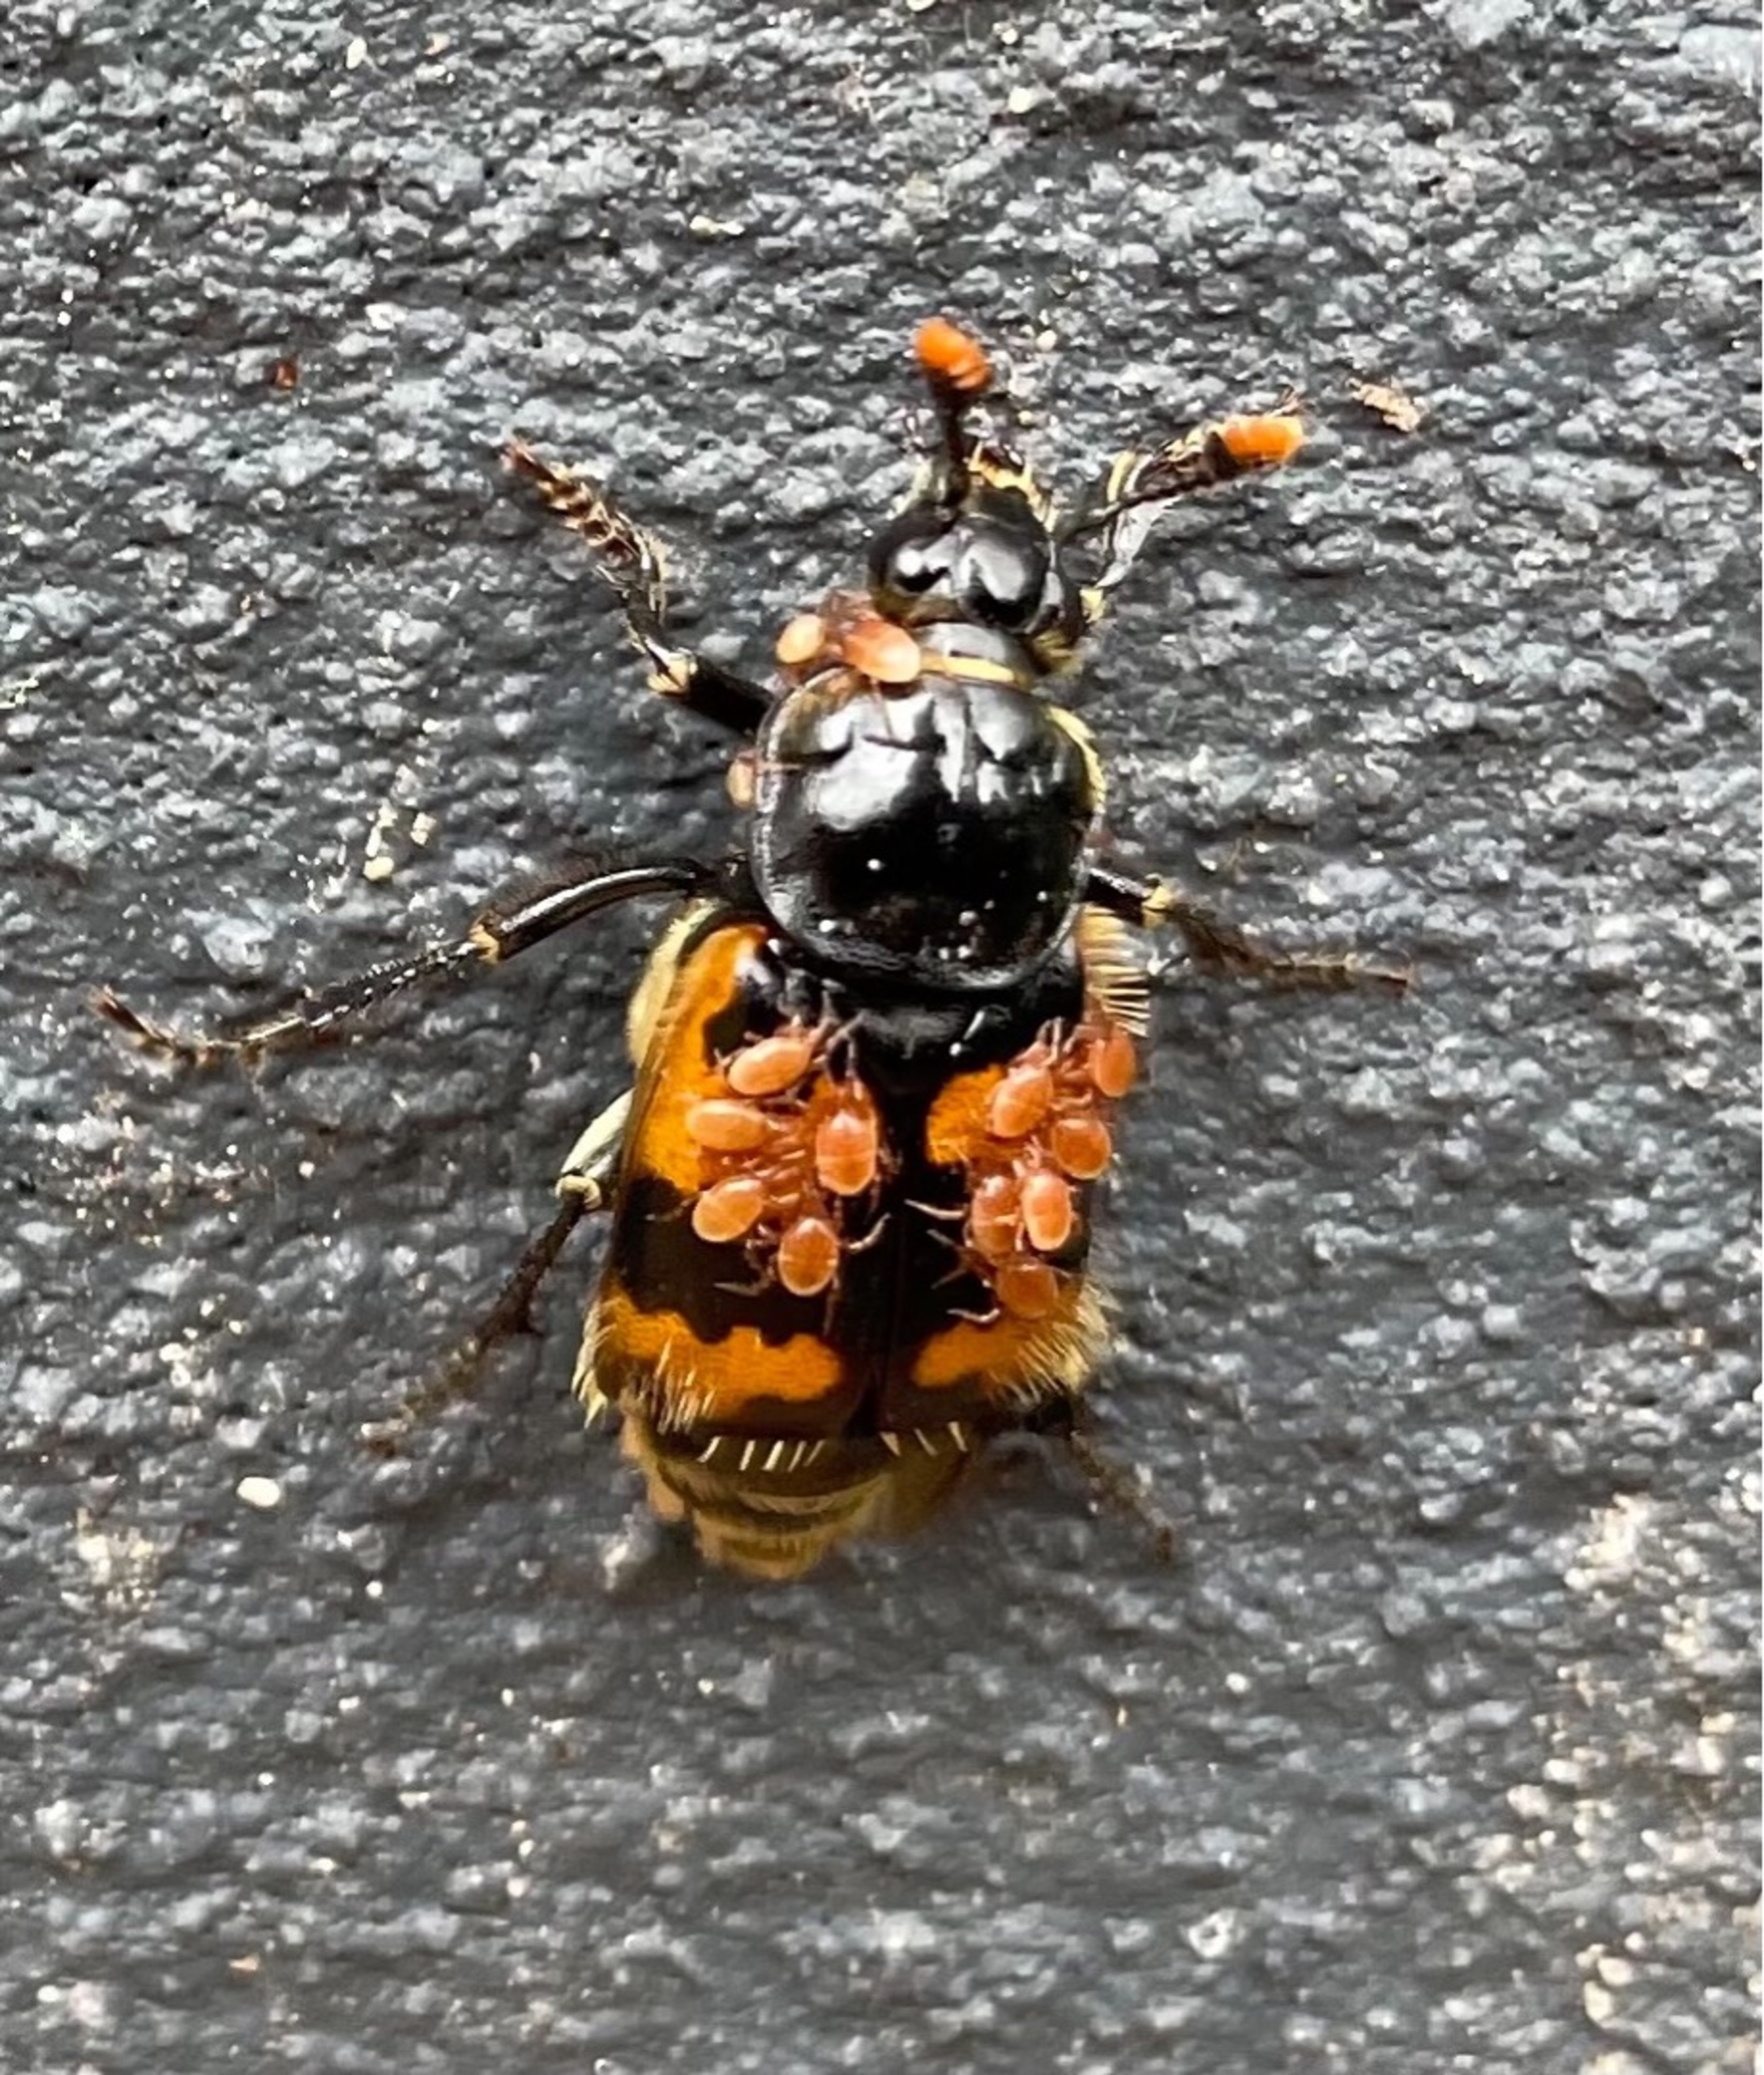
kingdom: Animalia
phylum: Arthropoda
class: Insecta
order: Coleoptera
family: Staphylinidae
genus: Nicrophorus
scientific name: Nicrophorus vespillo
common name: Krumbenet ådselgraver
